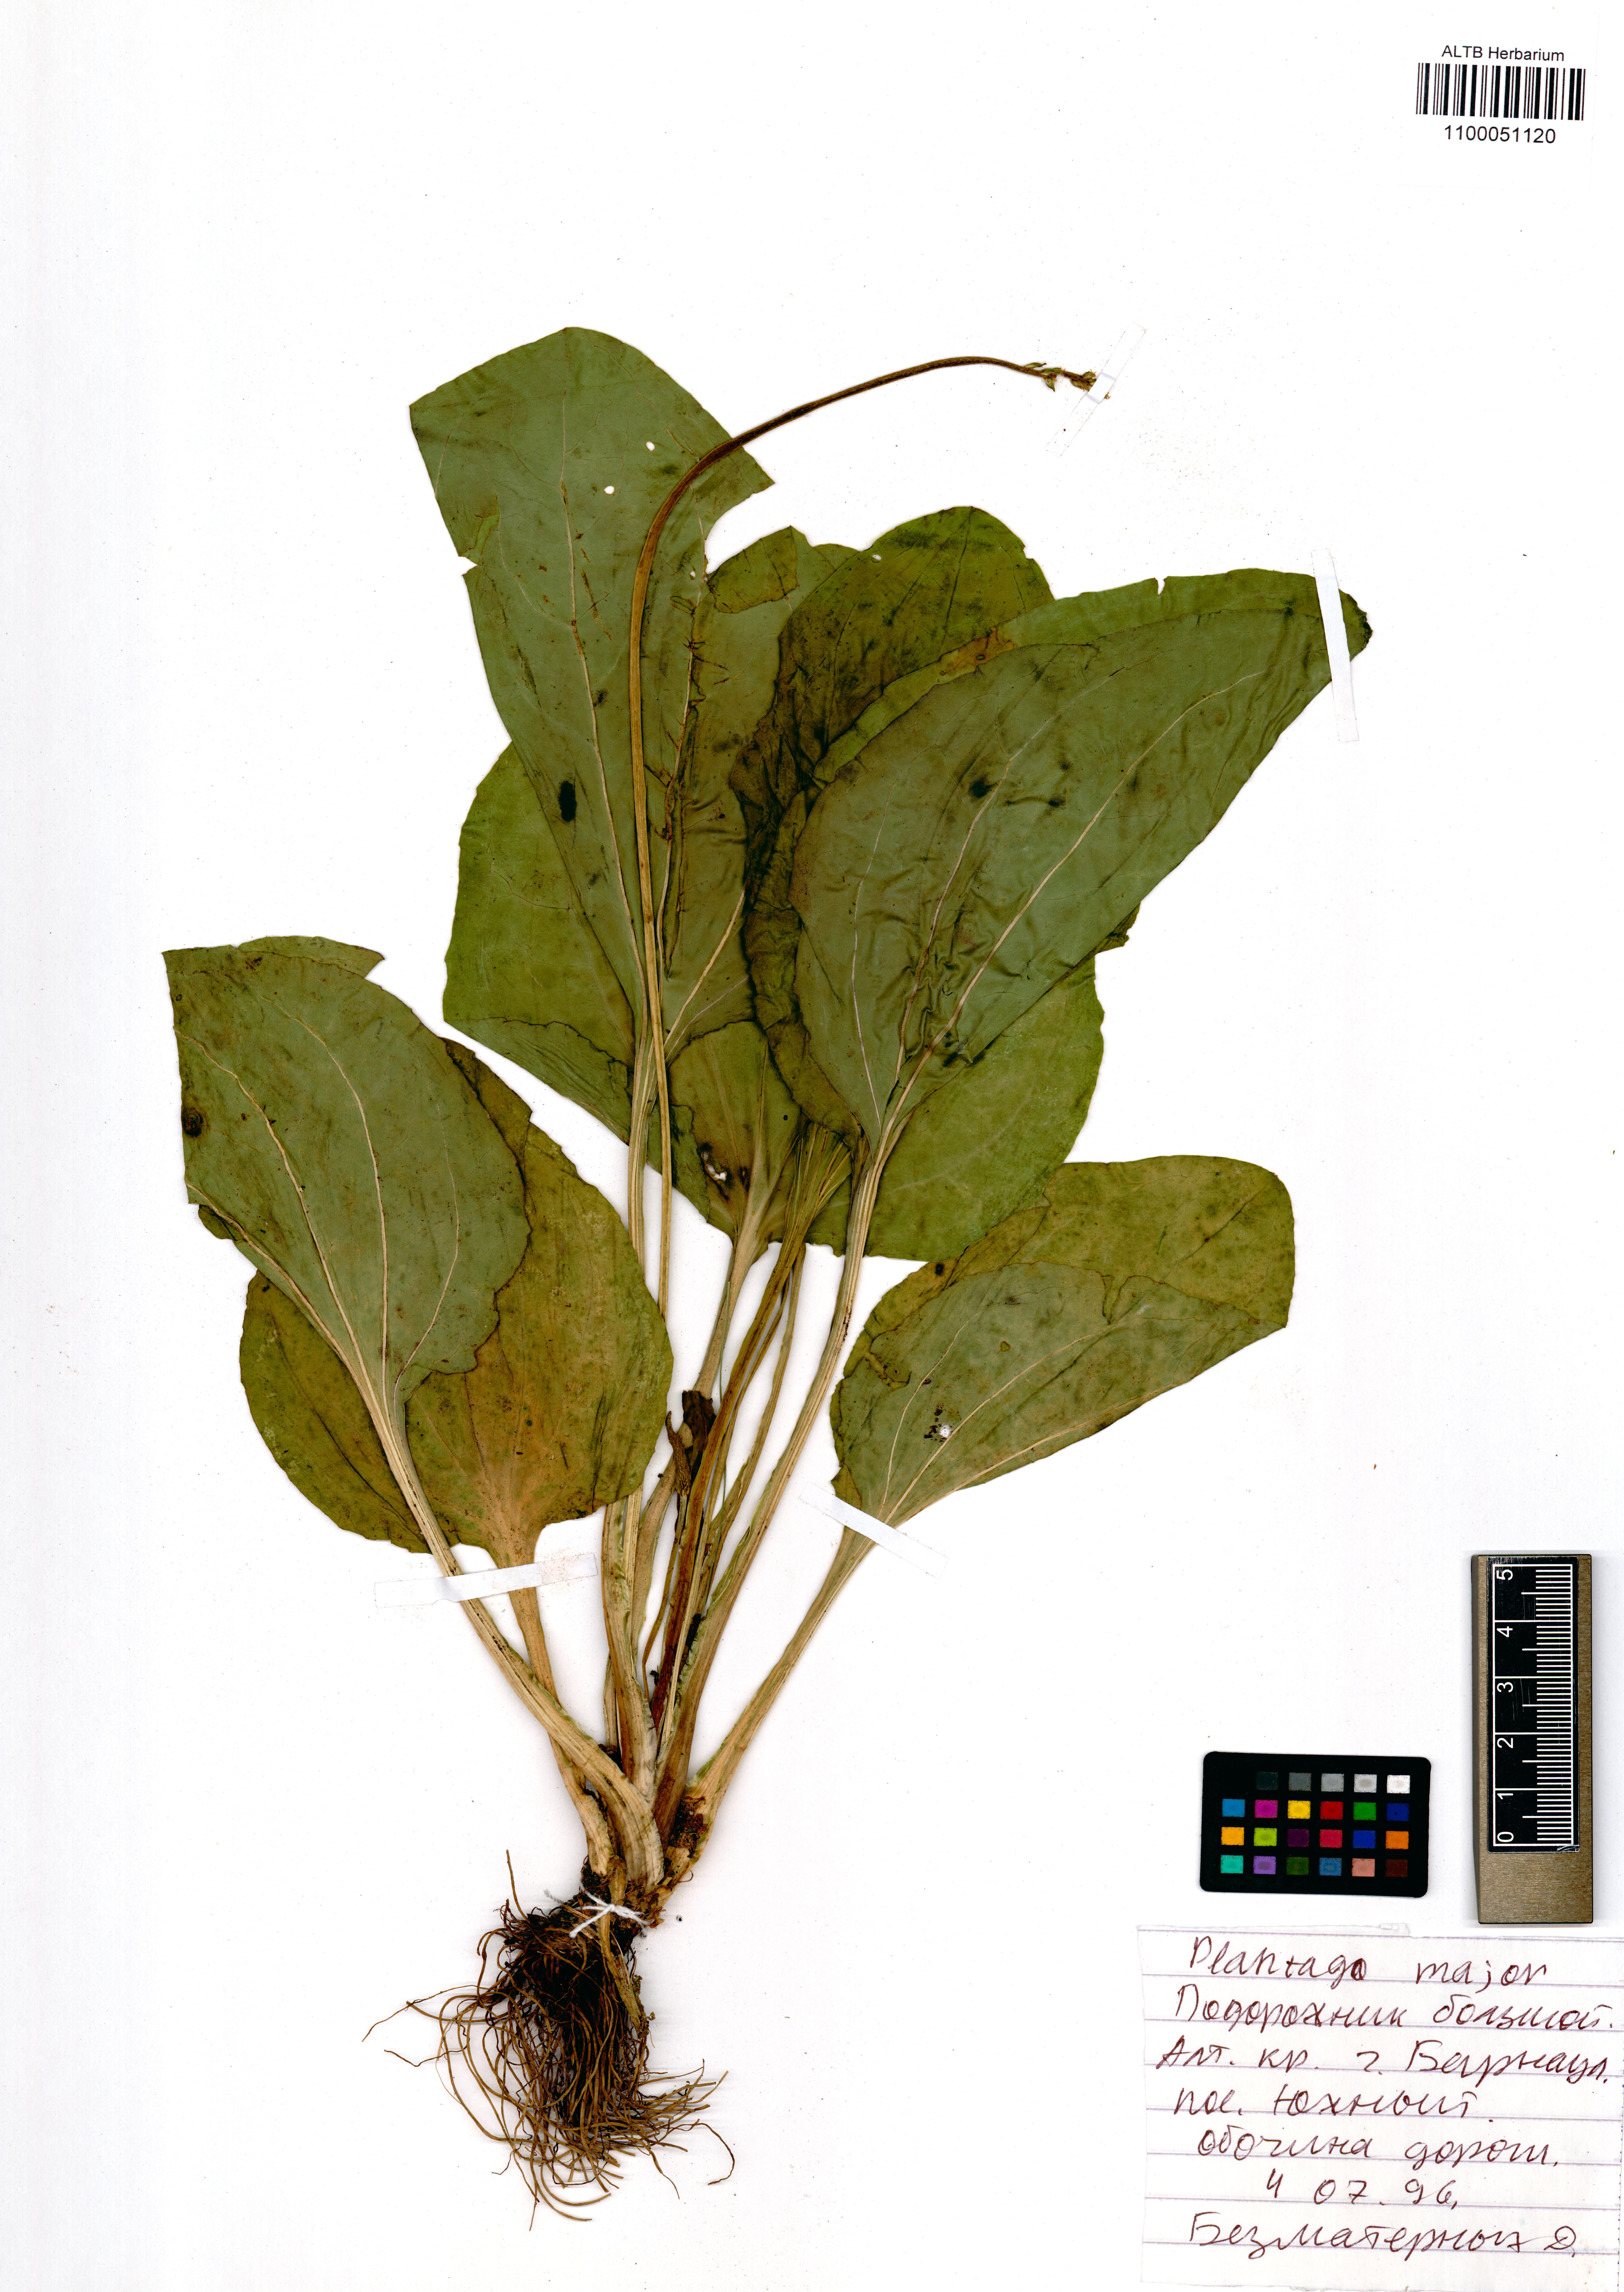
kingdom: Plantae
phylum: Tracheophyta
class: Magnoliopsida
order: Lamiales
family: Plantaginaceae
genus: Plantago
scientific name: Plantago major
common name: Common plantain
